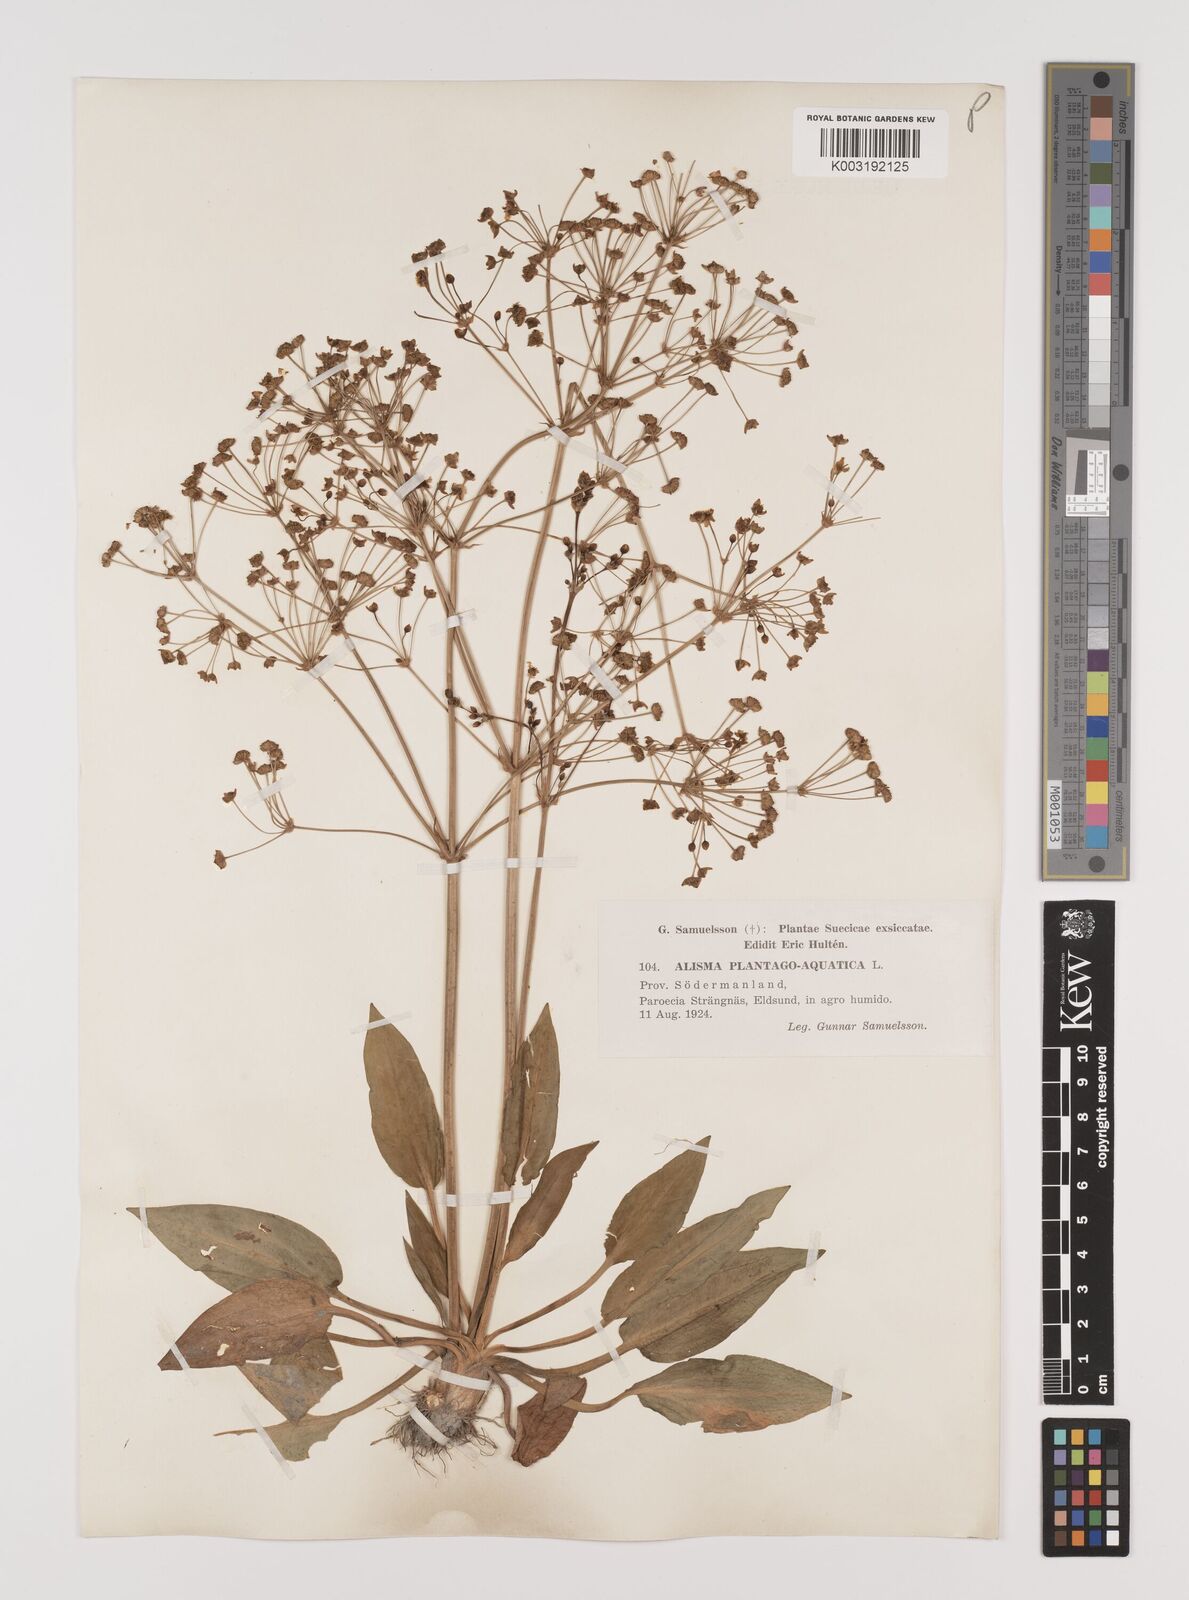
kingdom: Plantae
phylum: Tracheophyta
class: Liliopsida
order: Alismatales
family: Alismataceae
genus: Alisma
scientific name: Alisma plantago-aquatica
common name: Water-plantain
